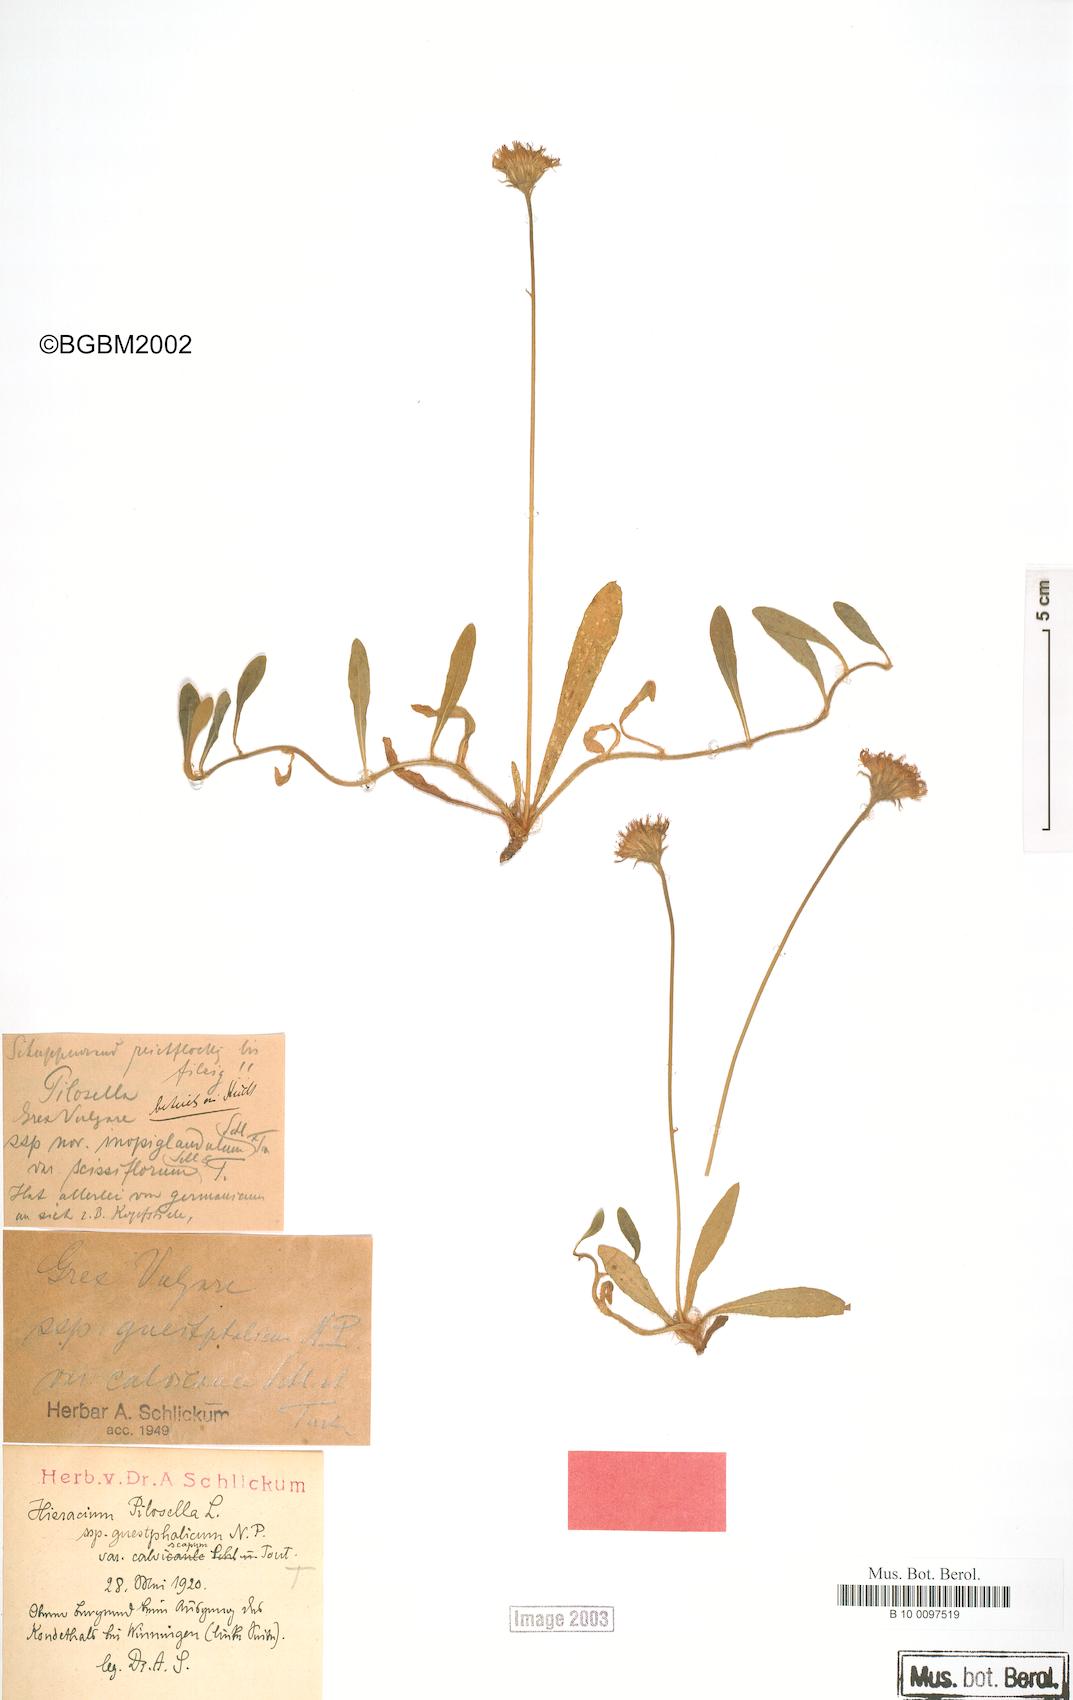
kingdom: Plantae
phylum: Tracheophyta
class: Magnoliopsida
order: Asterales
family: Asteraceae
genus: Pilosella
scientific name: Pilosella officinarum
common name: Mouse-ear hawkweed
